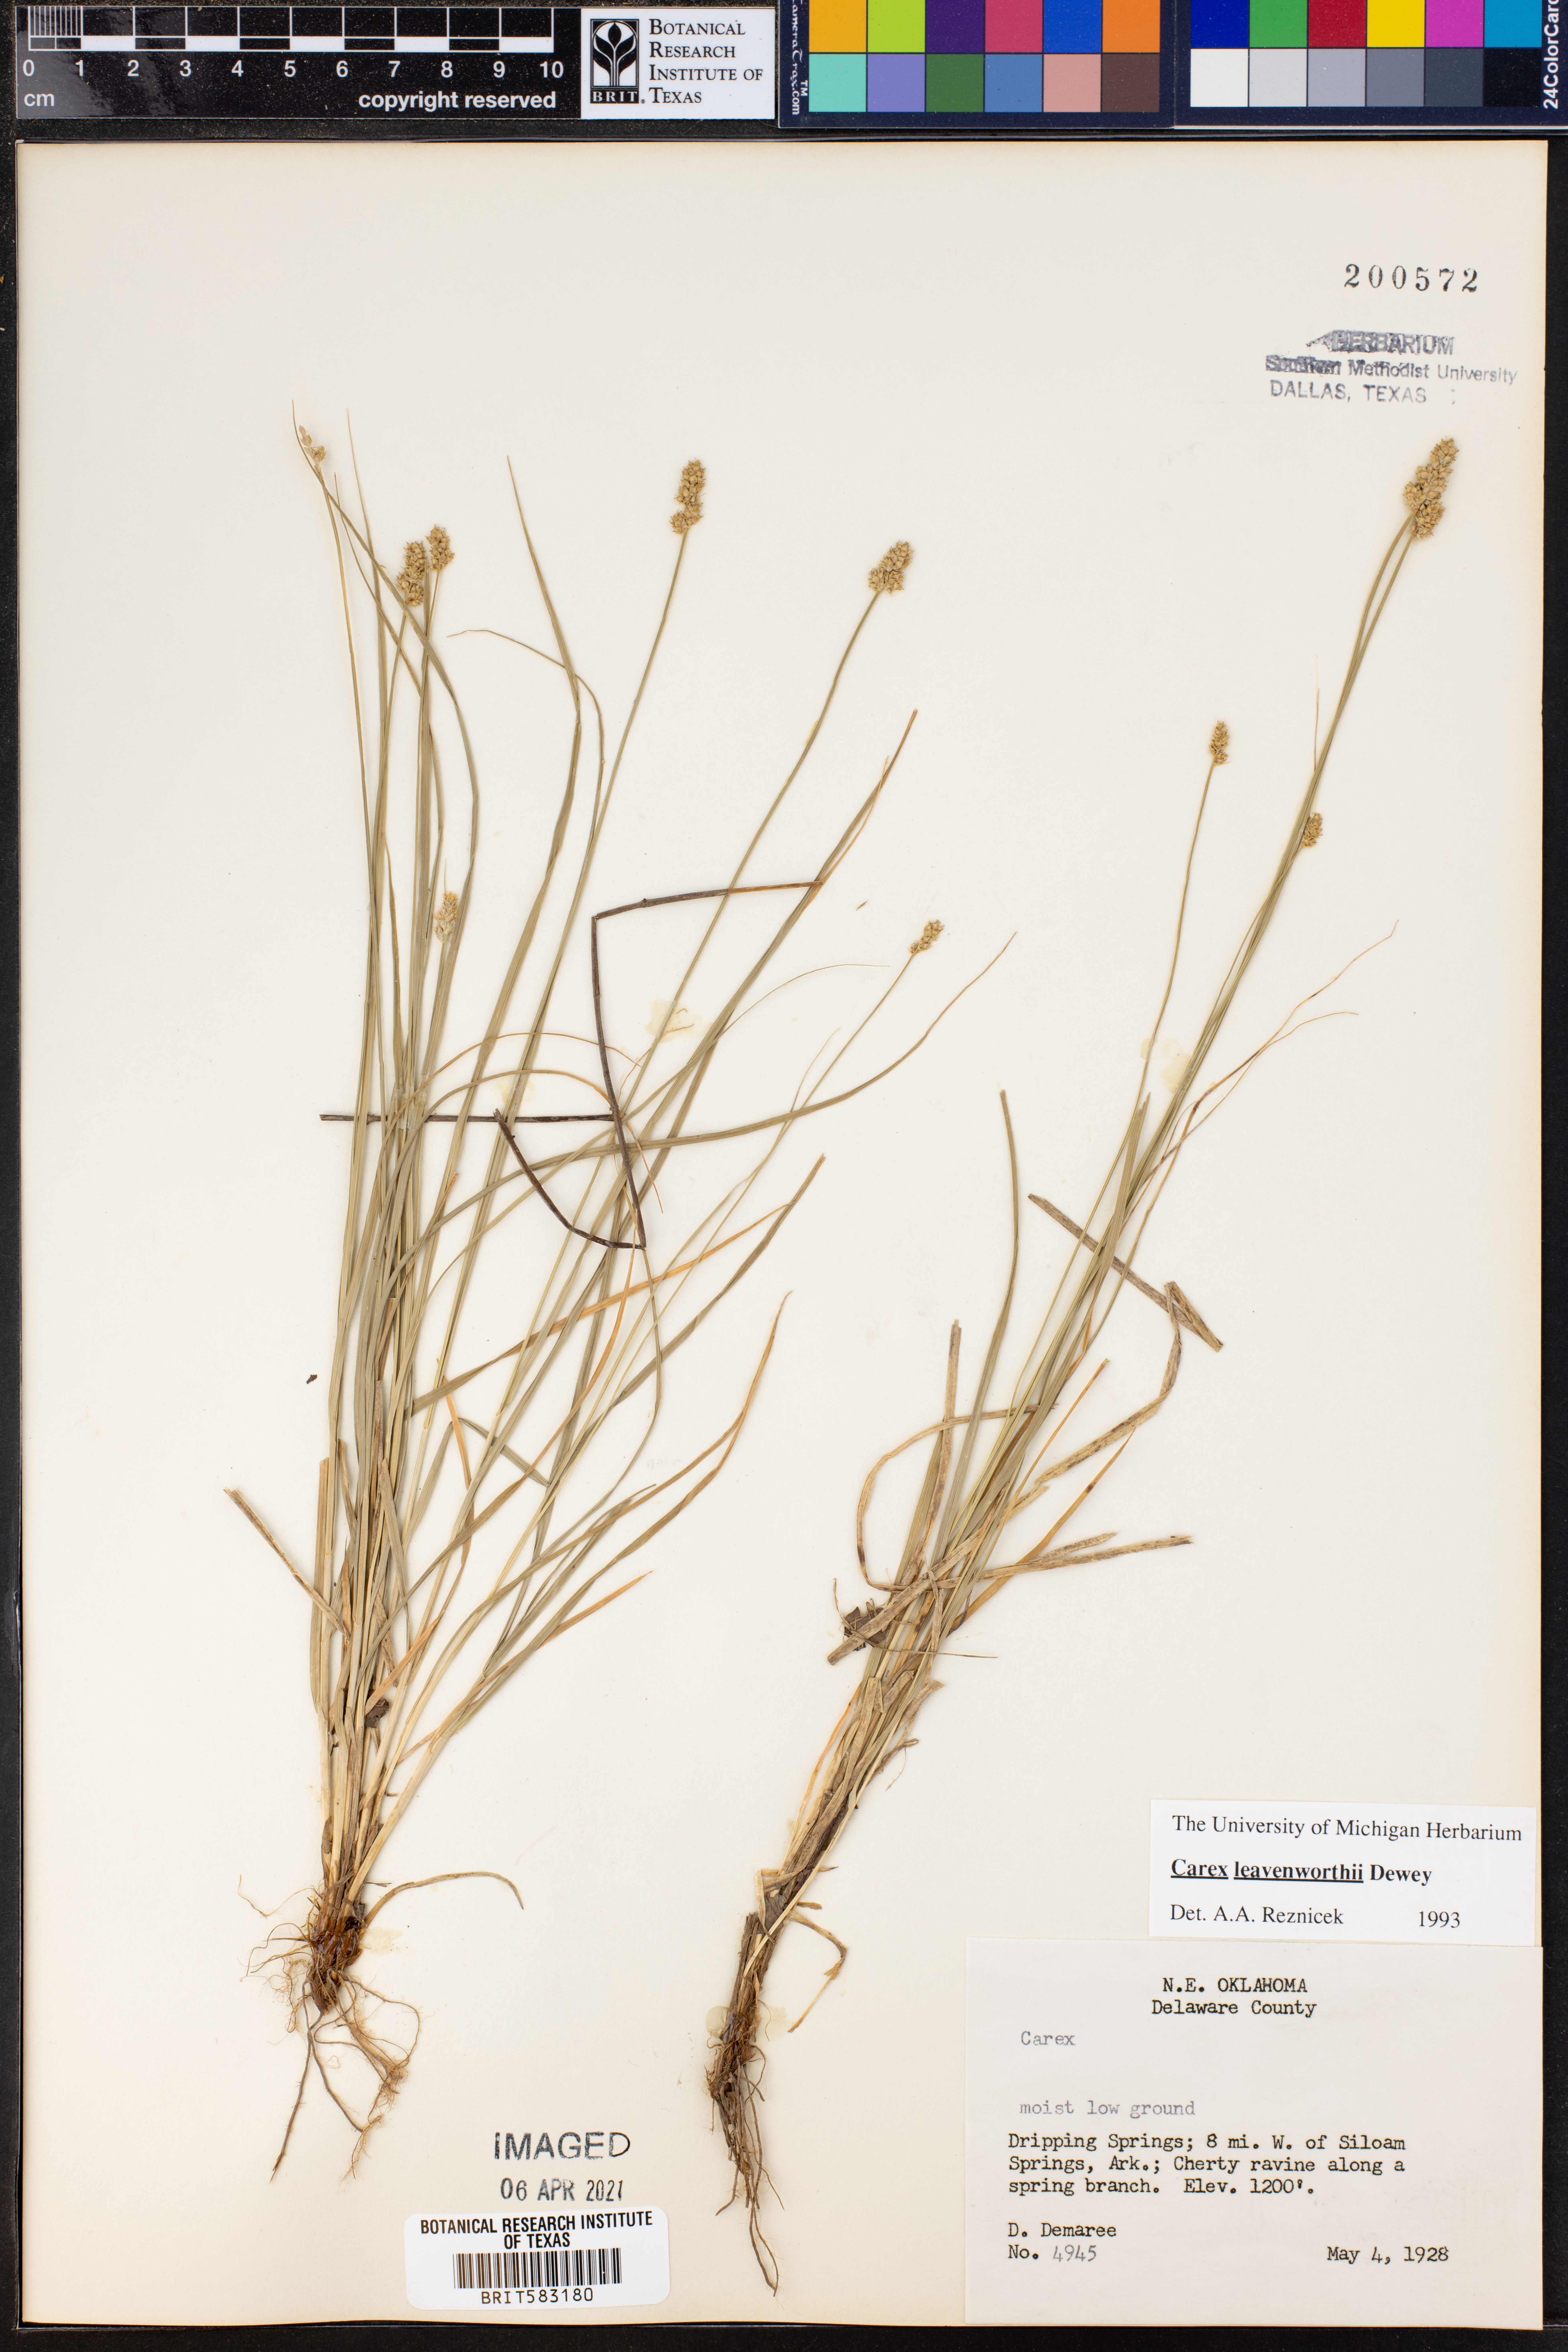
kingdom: Plantae
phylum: Tracheophyta
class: Liliopsida
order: Poales
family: Cyperaceae
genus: Carex
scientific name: Carex leavenworthii
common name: Leavenworth's bracted sedge
